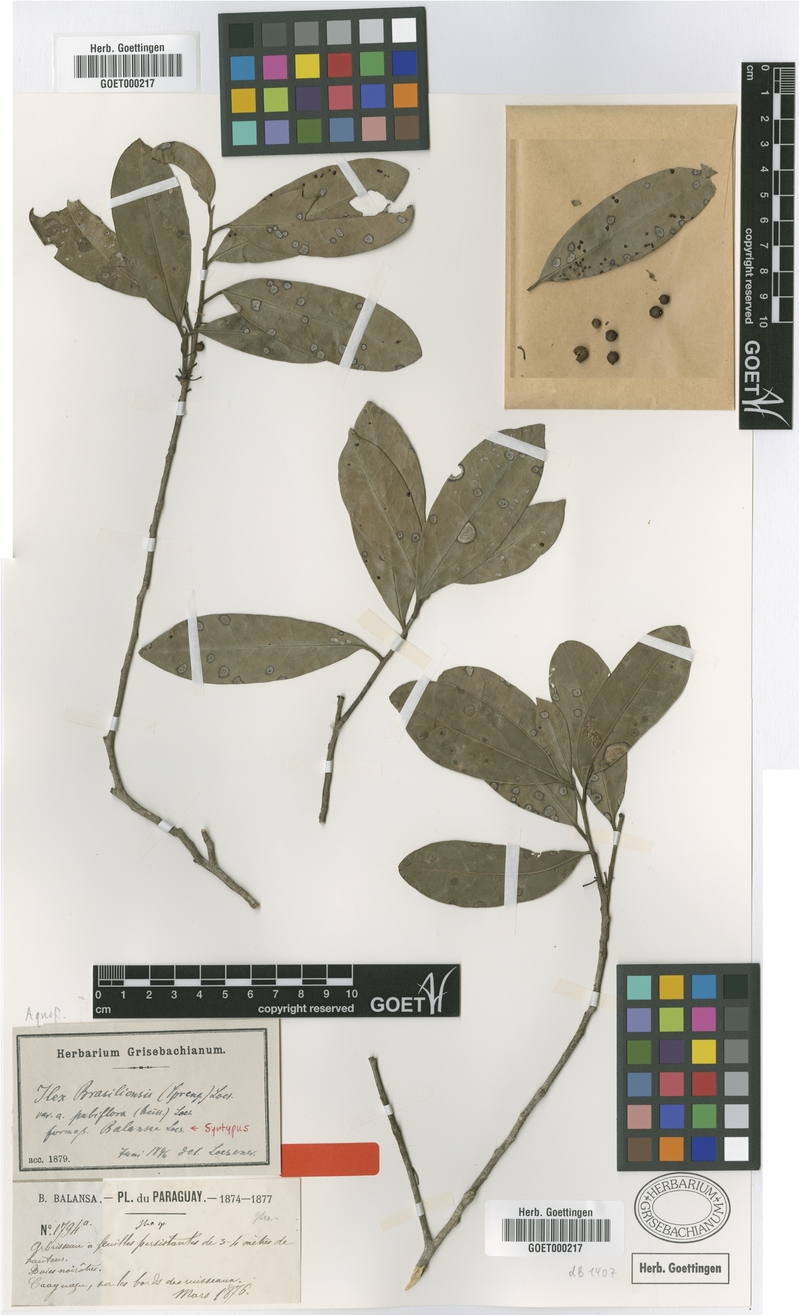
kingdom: Plantae
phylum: Tracheophyta
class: Magnoliopsida
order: Aquifoliales
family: Aquifoliaceae
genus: Ilex
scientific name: Ilex brasiliensis
